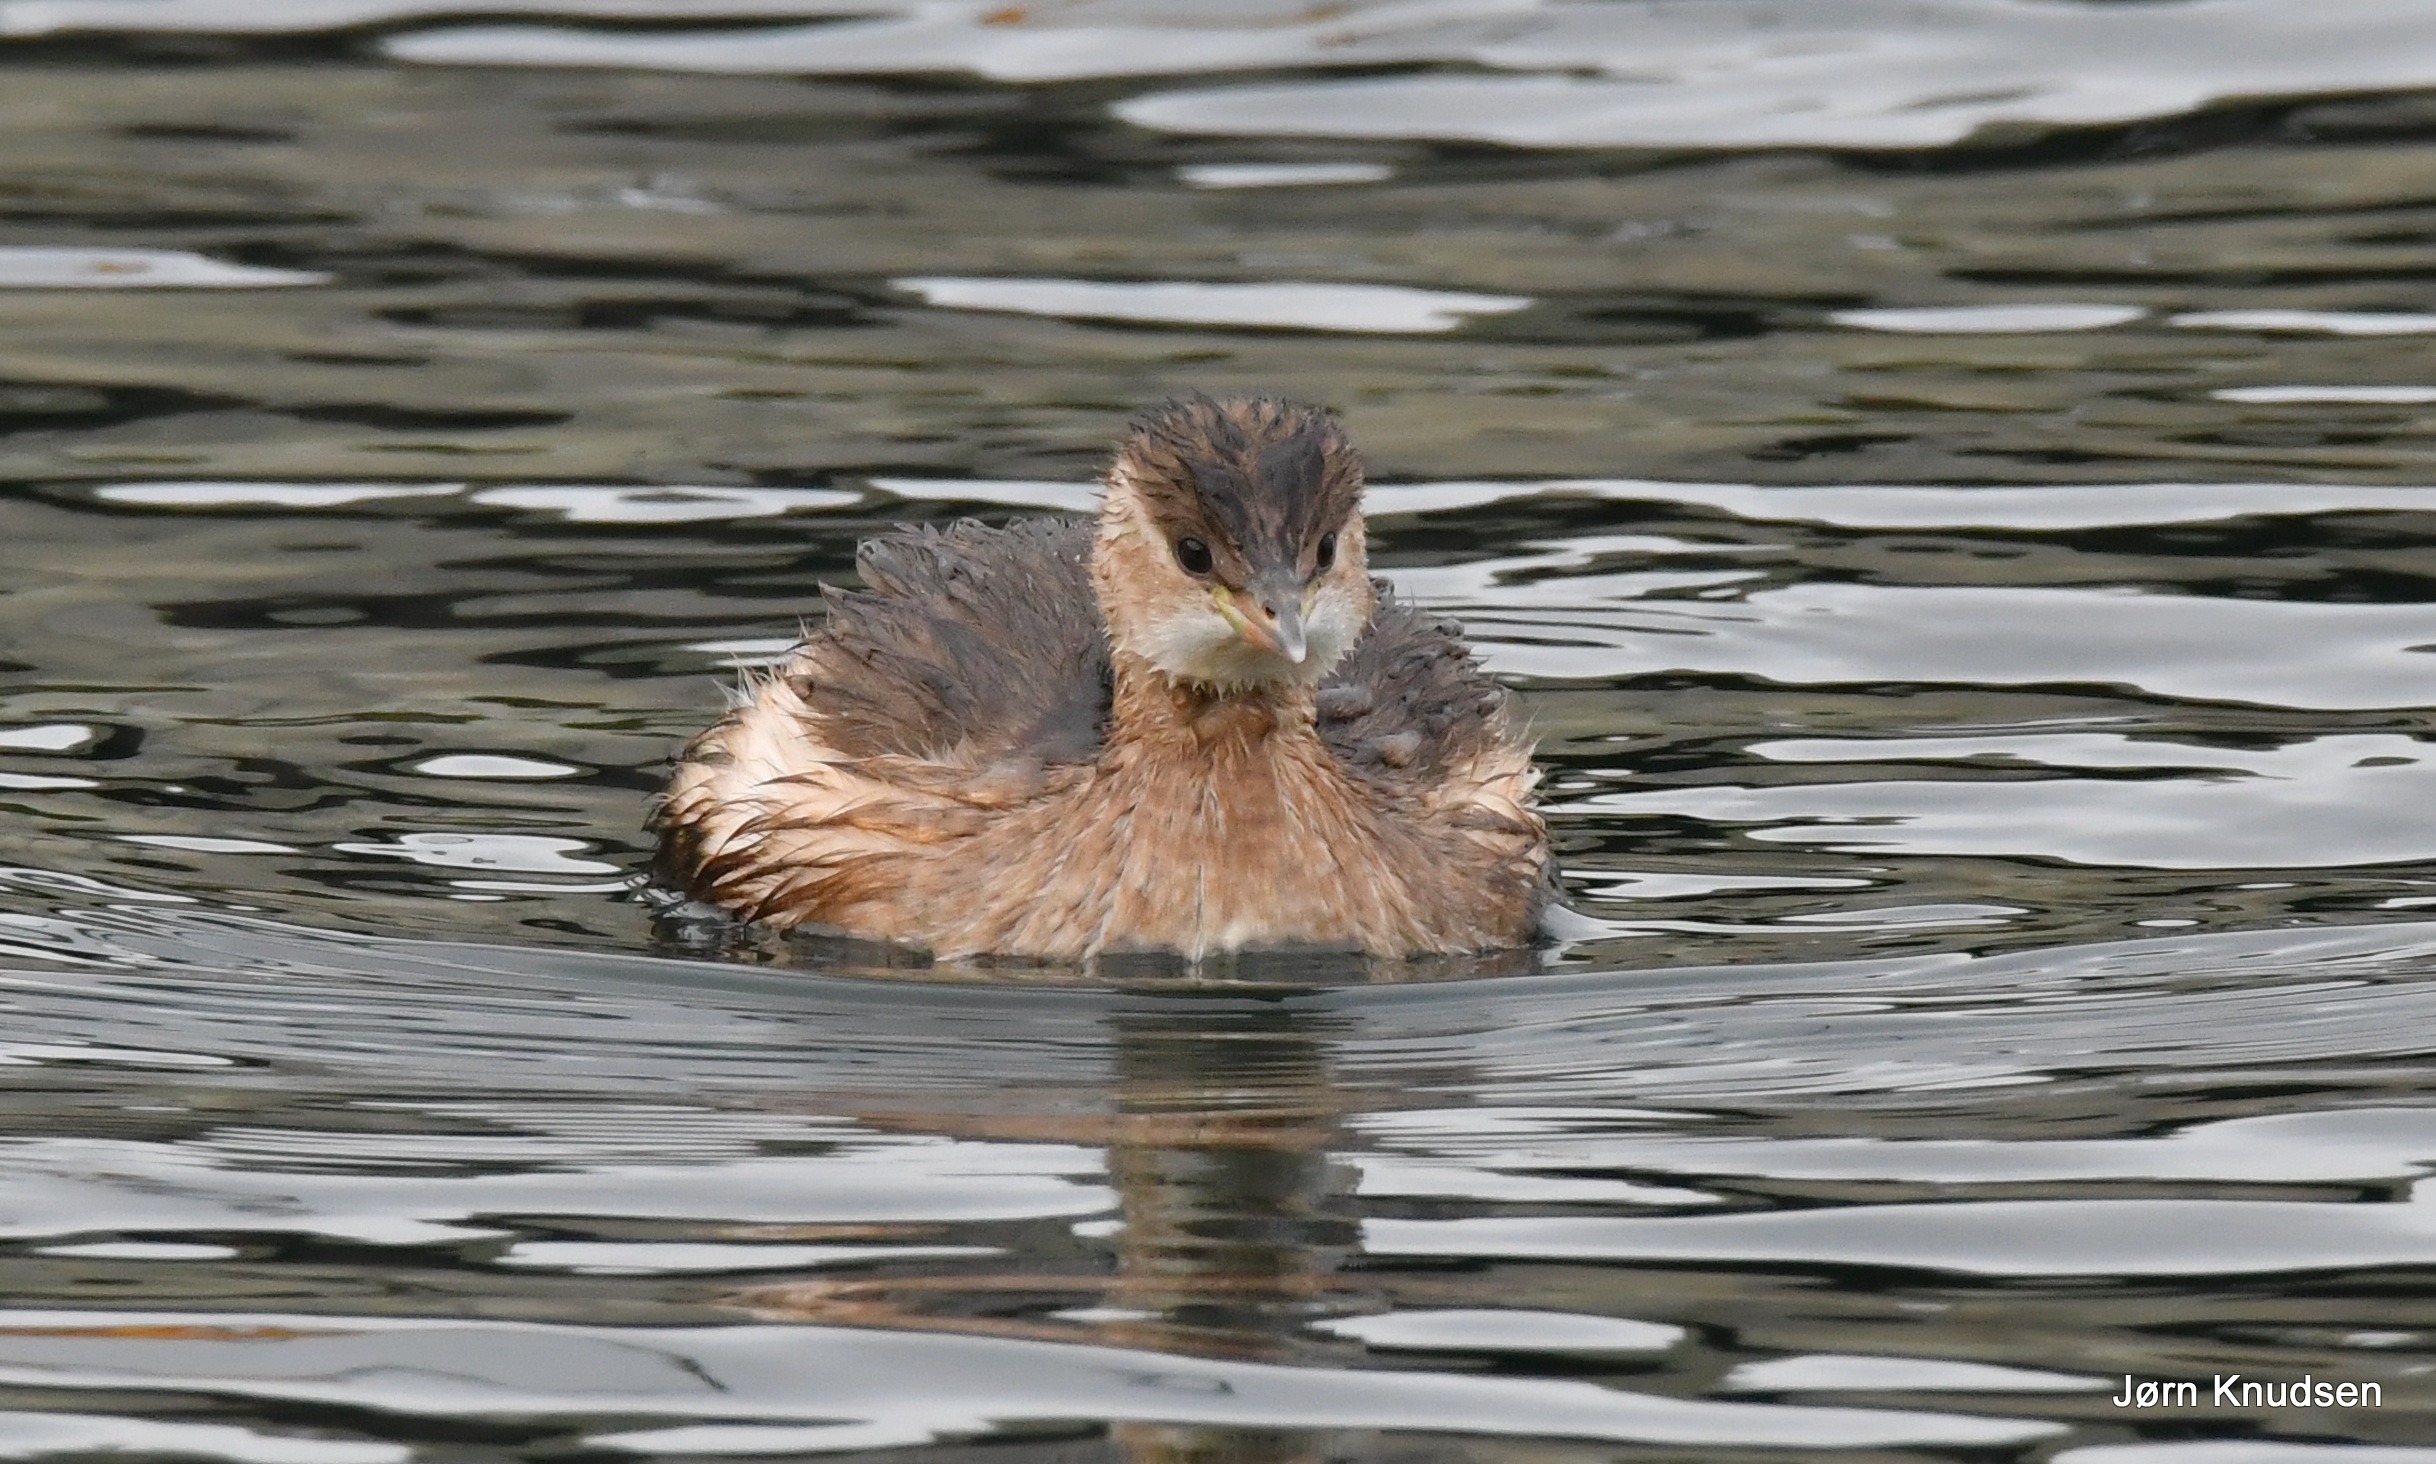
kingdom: Animalia
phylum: Chordata
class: Aves
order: Podicipediformes
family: Podicipedidae
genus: Tachybaptus
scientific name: Tachybaptus ruficollis
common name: Lille lappedykker
